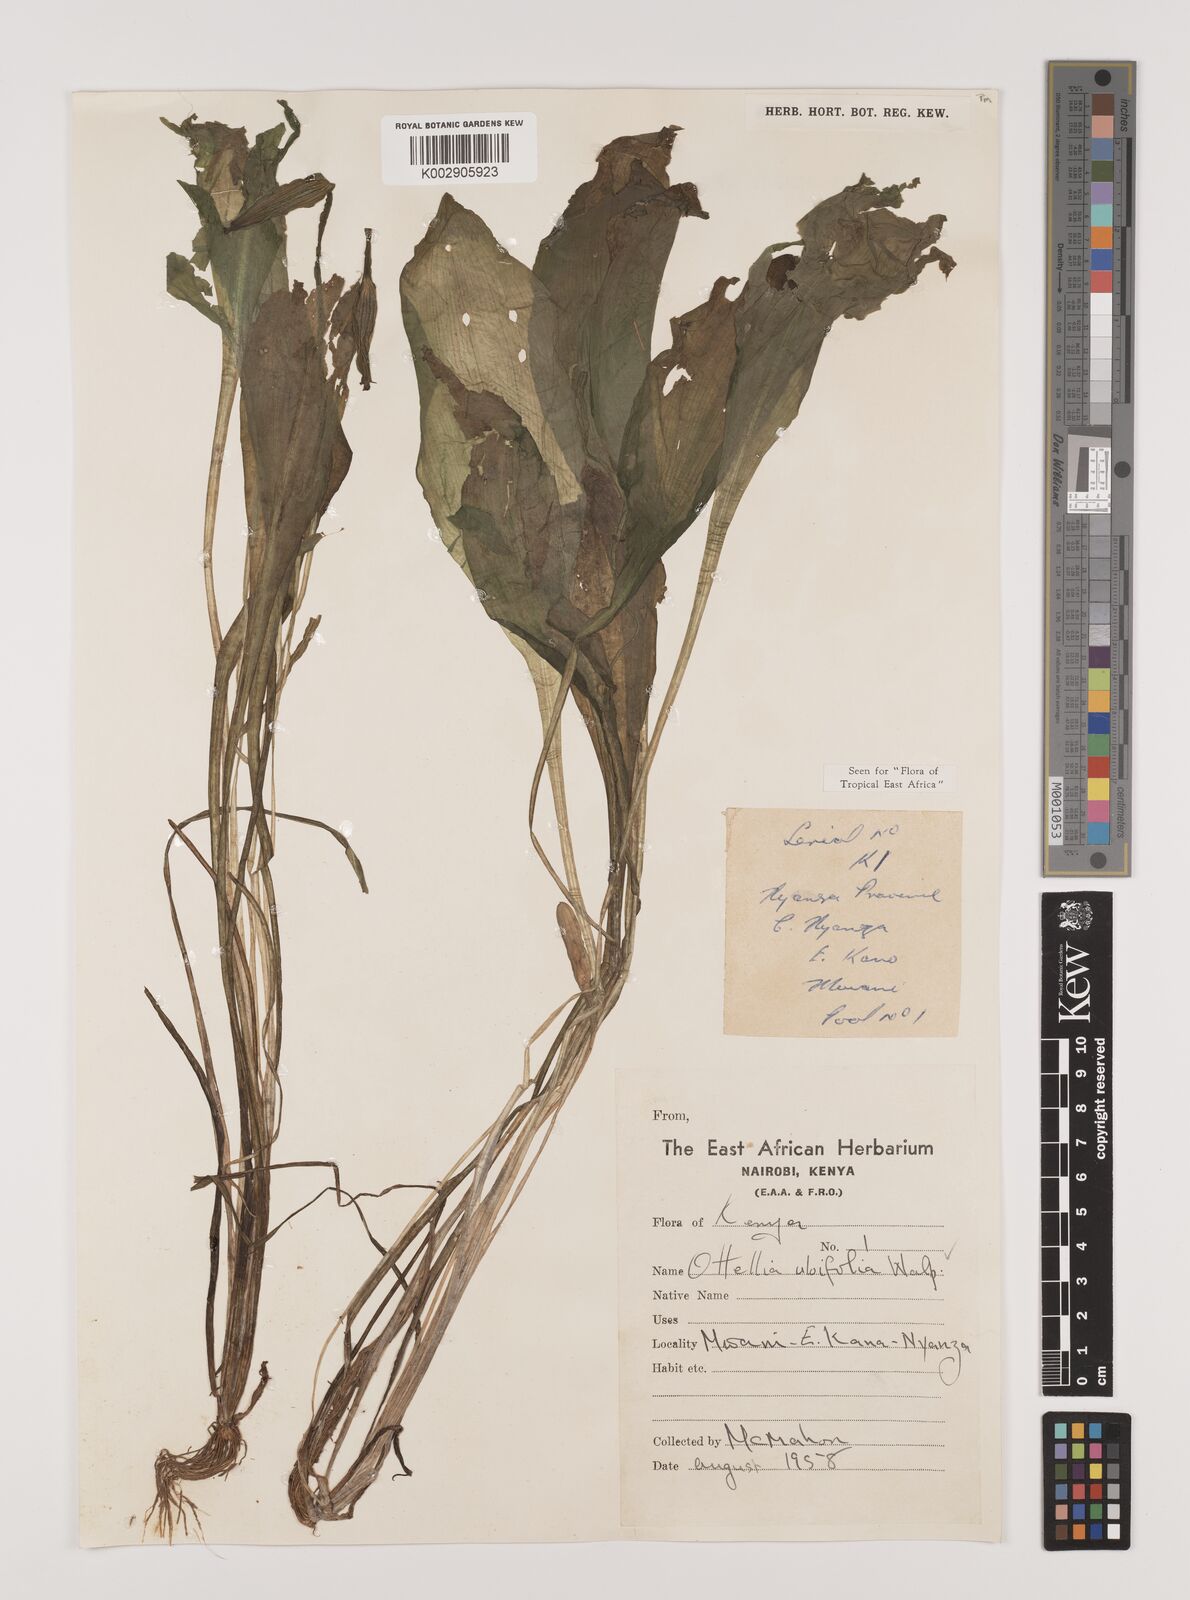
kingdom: Plantae
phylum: Tracheophyta
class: Liliopsida
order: Alismatales
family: Hydrocharitaceae
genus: Ottelia
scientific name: Ottelia ulvifolia
